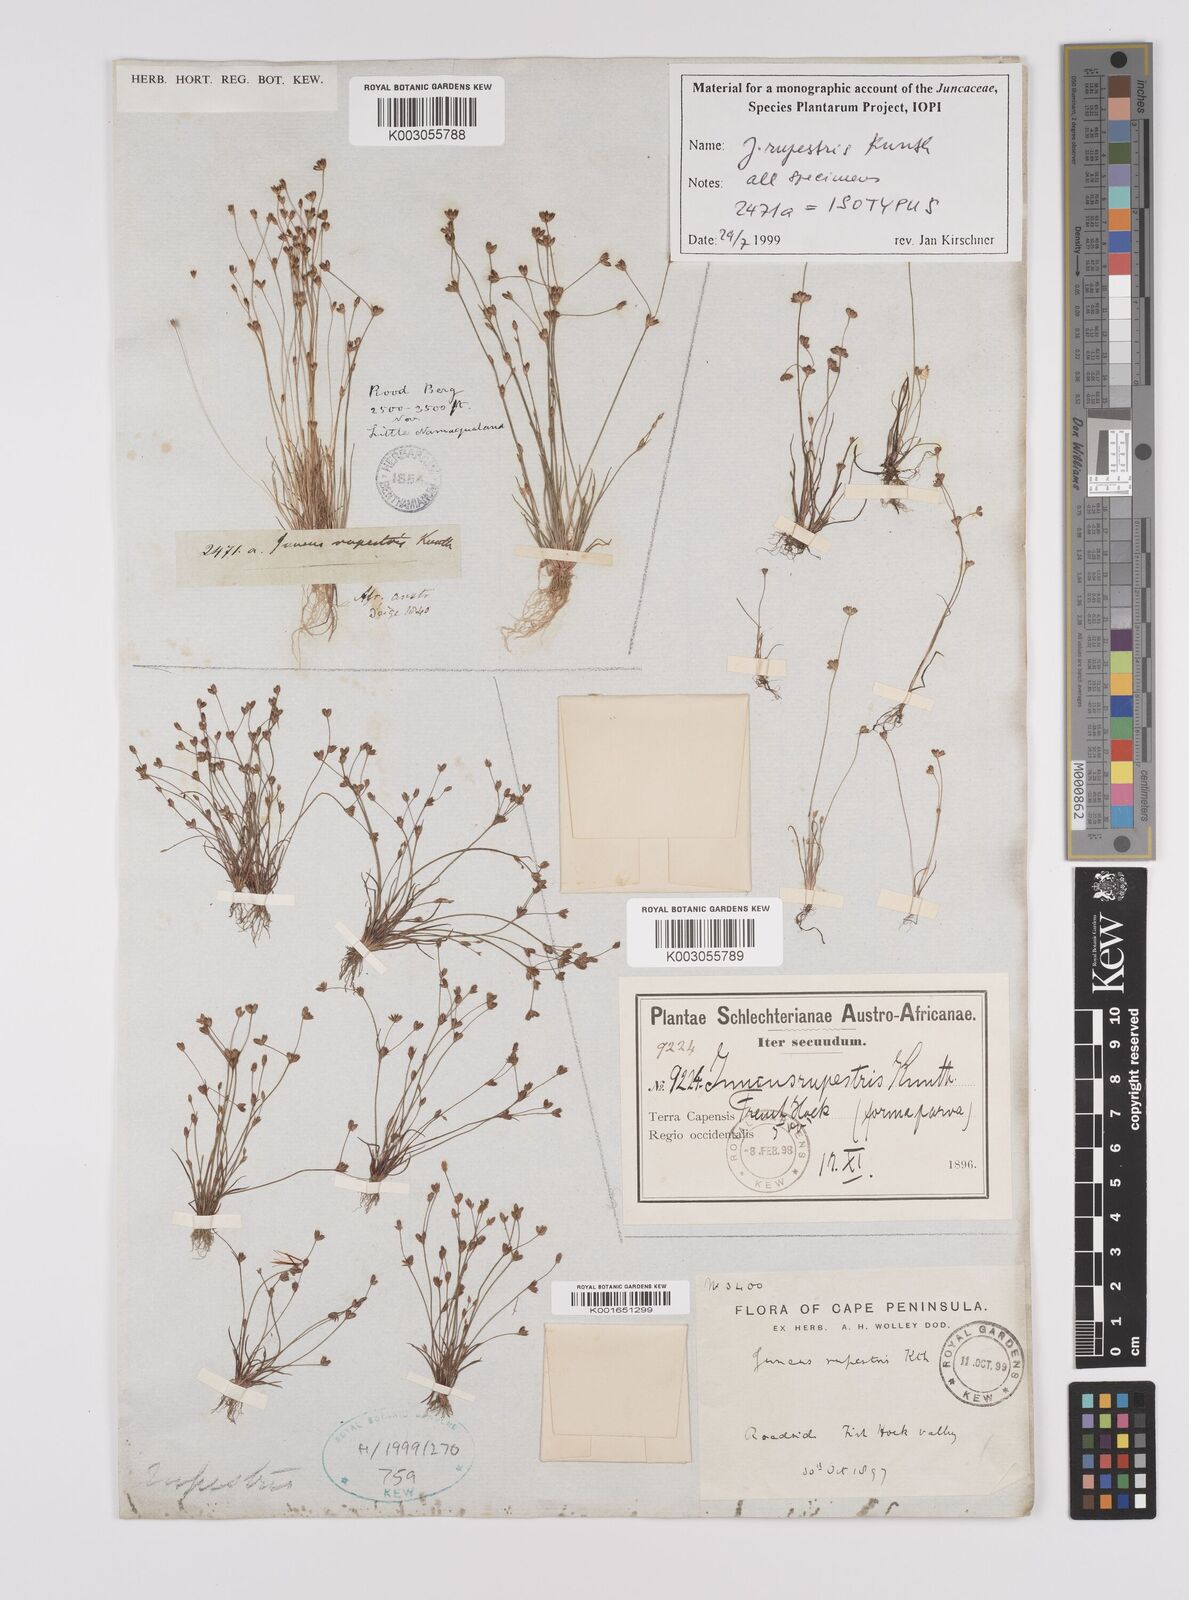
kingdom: Plantae
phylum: Tracheophyta
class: Liliopsida
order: Poales
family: Juncaceae
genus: Juncus
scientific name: Juncus rupestris
